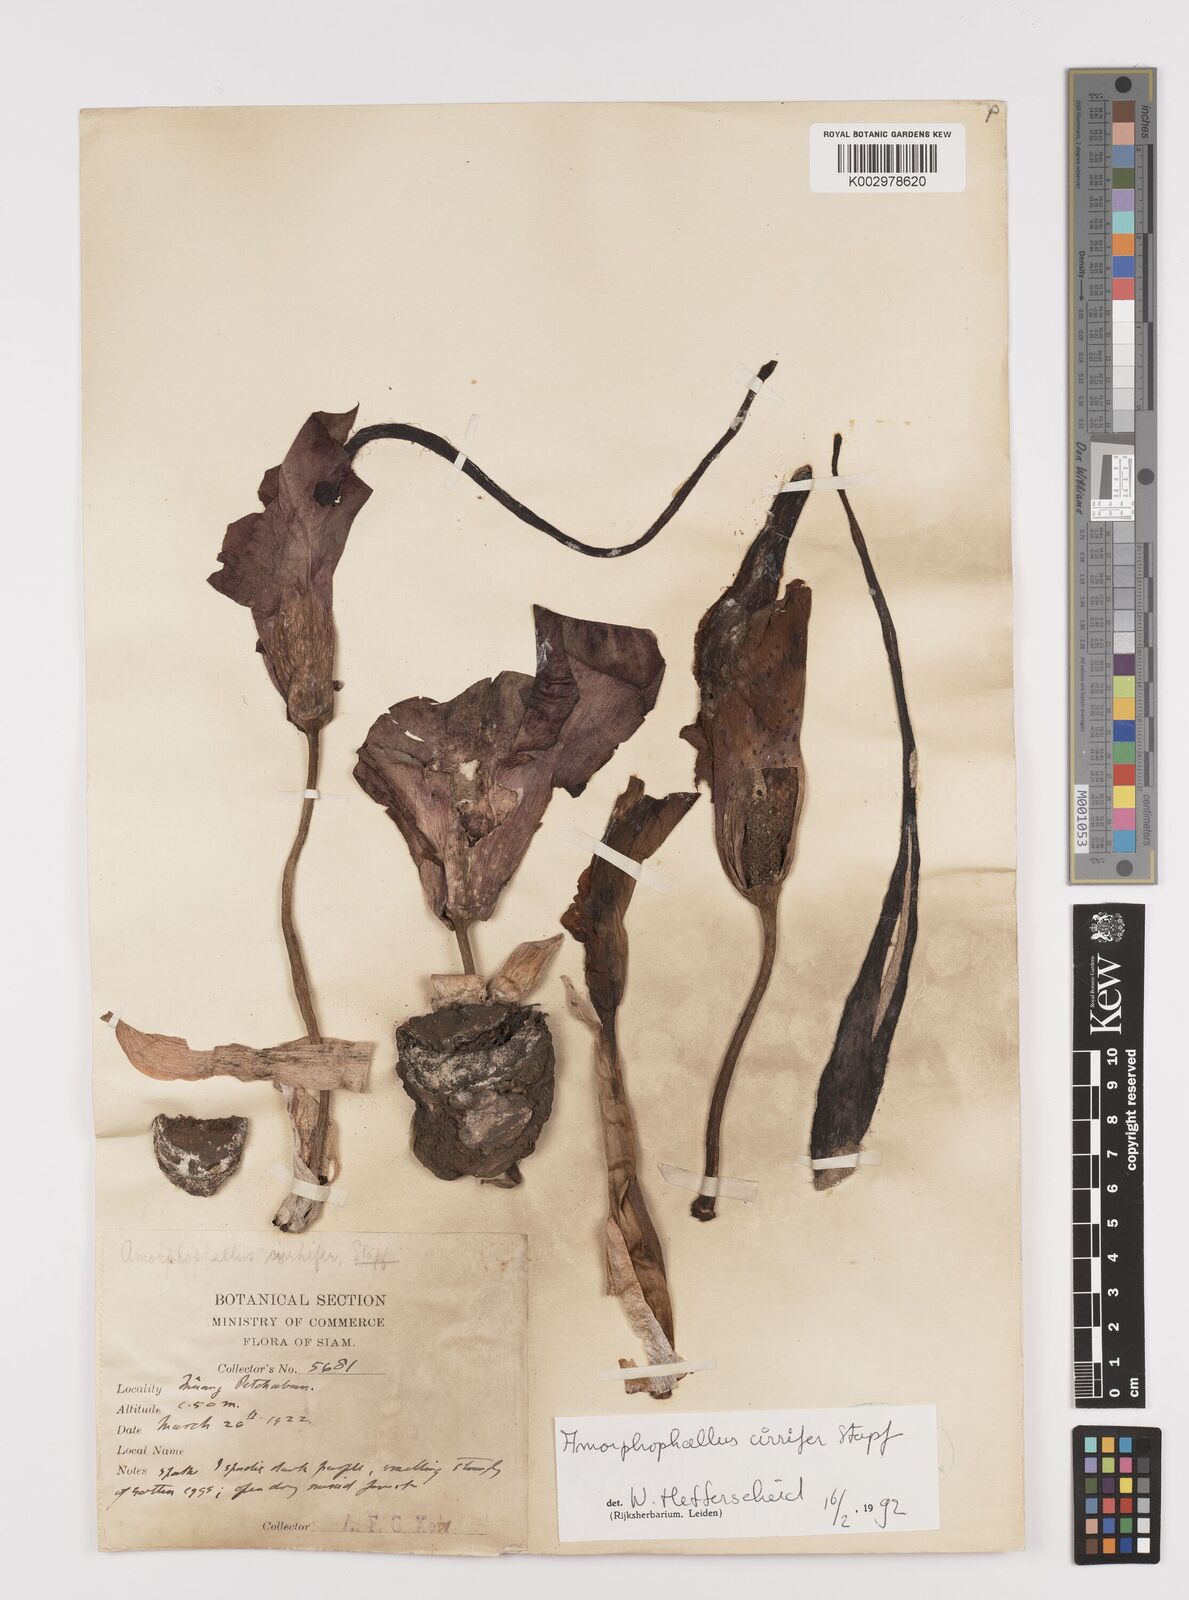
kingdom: Plantae
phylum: Tracheophyta
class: Liliopsida
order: Alismatales
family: Araceae
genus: Amorphophallus
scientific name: Amorphophallus cirrifer
